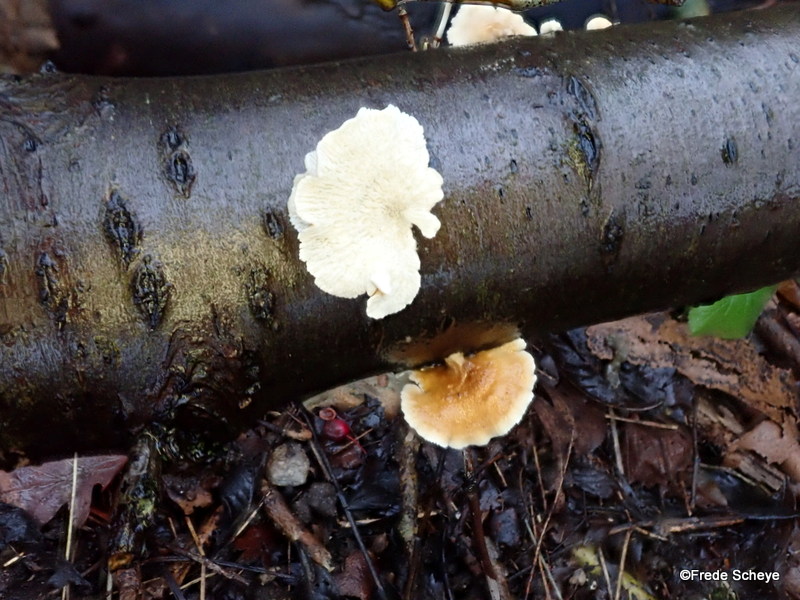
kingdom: Fungi
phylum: Basidiomycota
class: Agaricomycetes
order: Amylocorticiales
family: Amylocorticiaceae
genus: Plicaturopsis
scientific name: Plicaturopsis crispa
